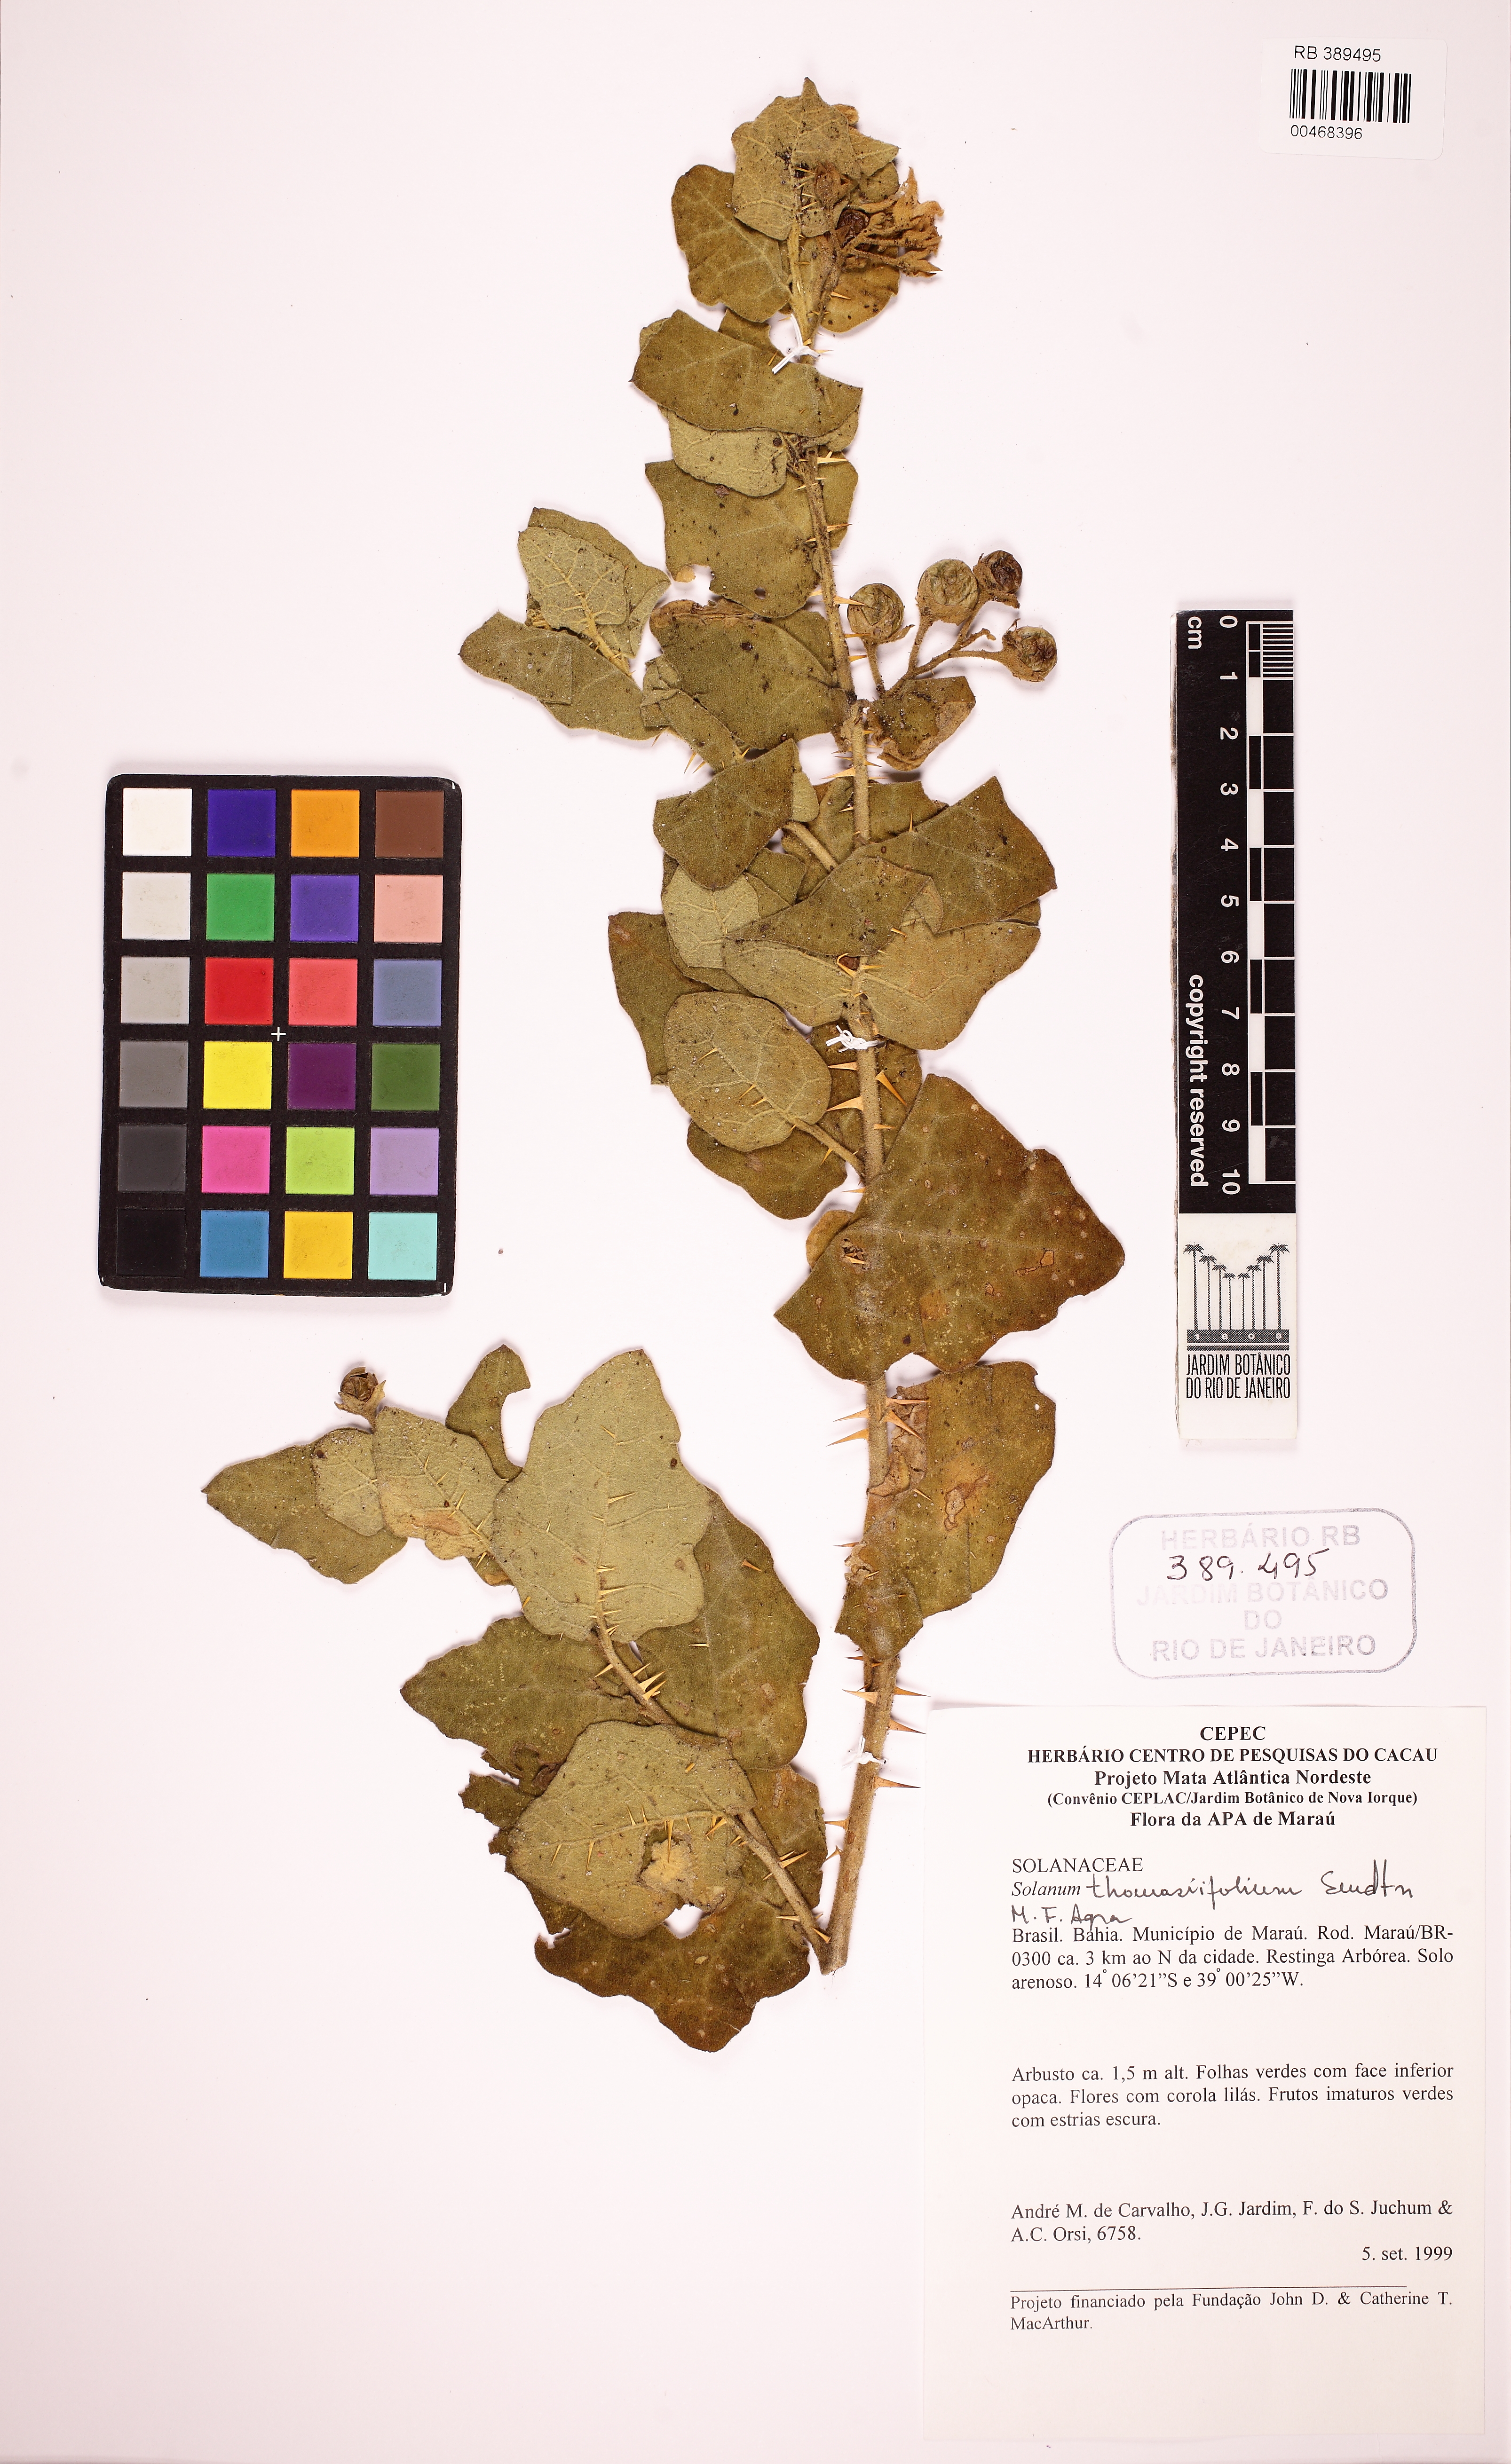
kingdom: Plantae
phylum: Tracheophyta
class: Magnoliopsida
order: Solanales
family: Solanaceae
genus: Solanum
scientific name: Solanum thomasiifolium
